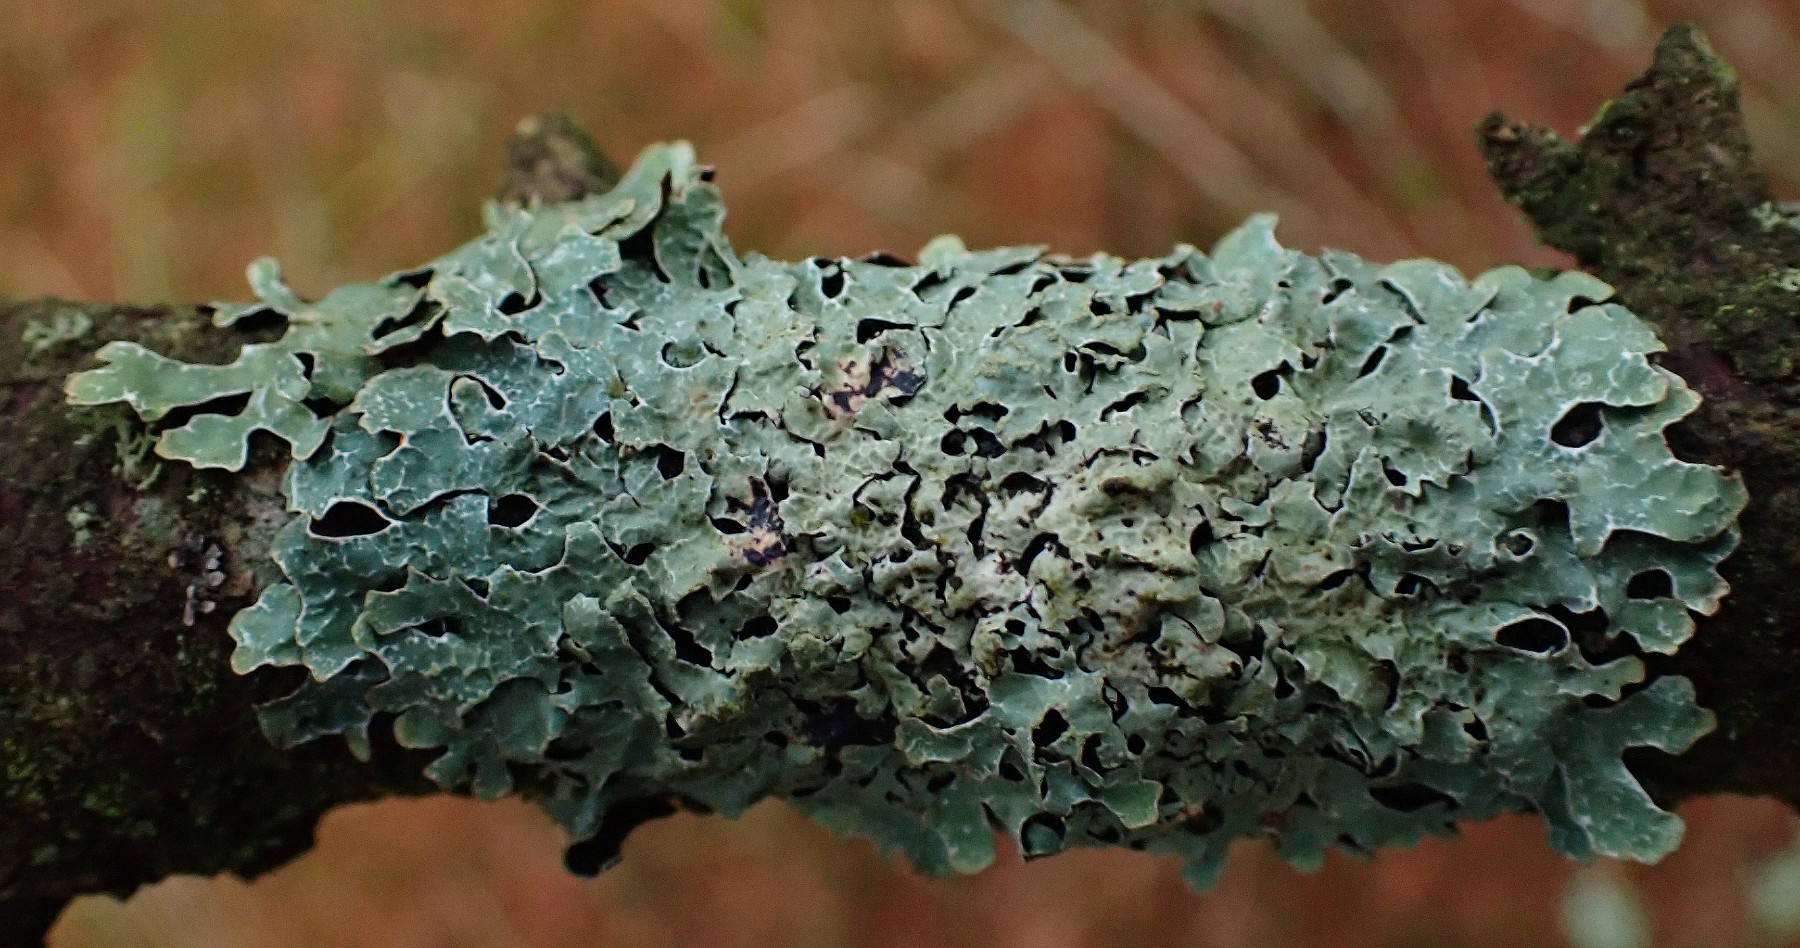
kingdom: Fungi
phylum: Ascomycota
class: Lecanoromycetes
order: Lecanorales
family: Parmeliaceae
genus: Parmelia
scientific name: Parmelia sulcata
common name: rynket skållav
